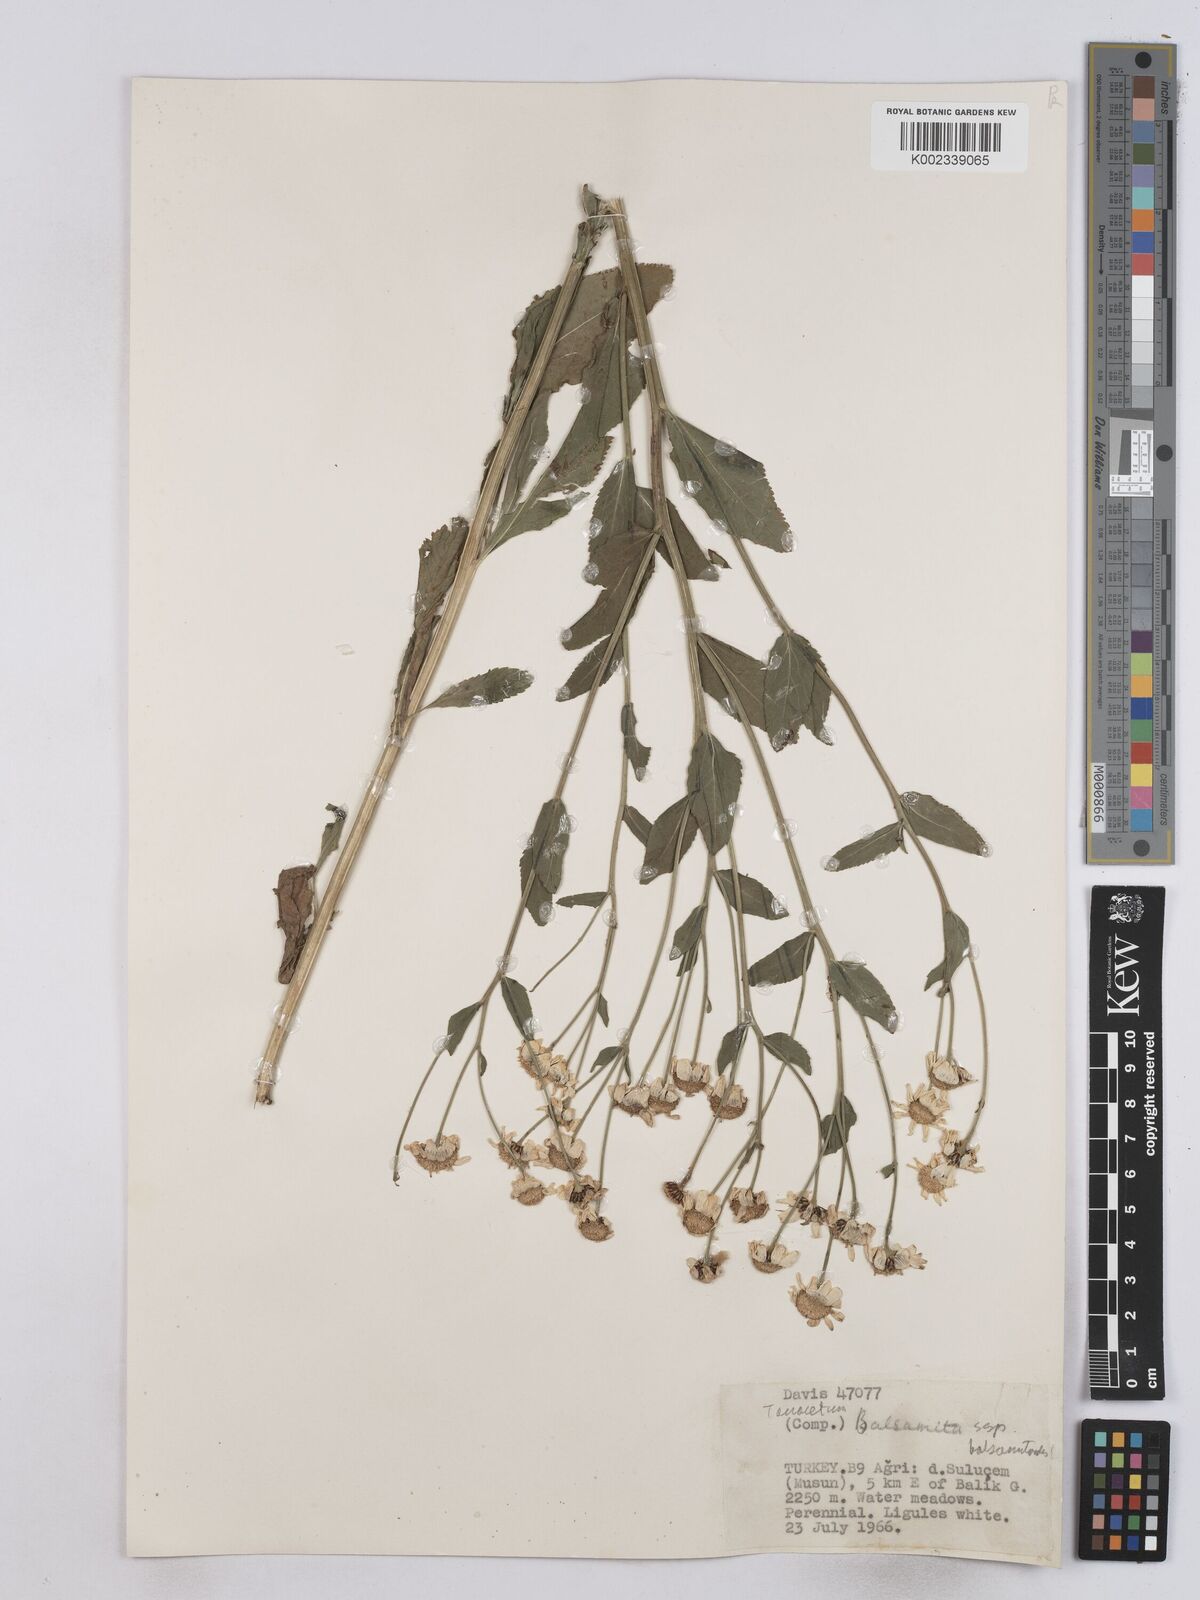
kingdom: Plantae
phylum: Tracheophyta
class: Magnoliopsida
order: Asterales
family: Asteraceae
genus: Tanacetum
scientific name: Tanacetum balsamita
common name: Costmary
